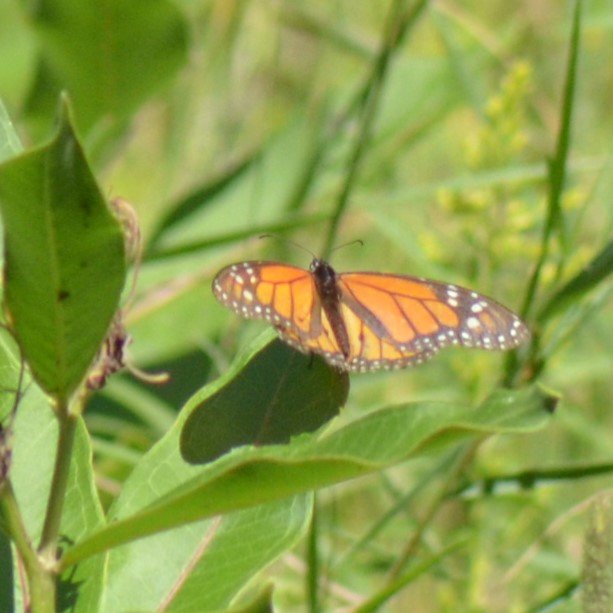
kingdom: Animalia
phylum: Arthropoda
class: Insecta
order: Lepidoptera
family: Nymphalidae
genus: Danaus
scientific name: Danaus plexippus
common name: Monarch
